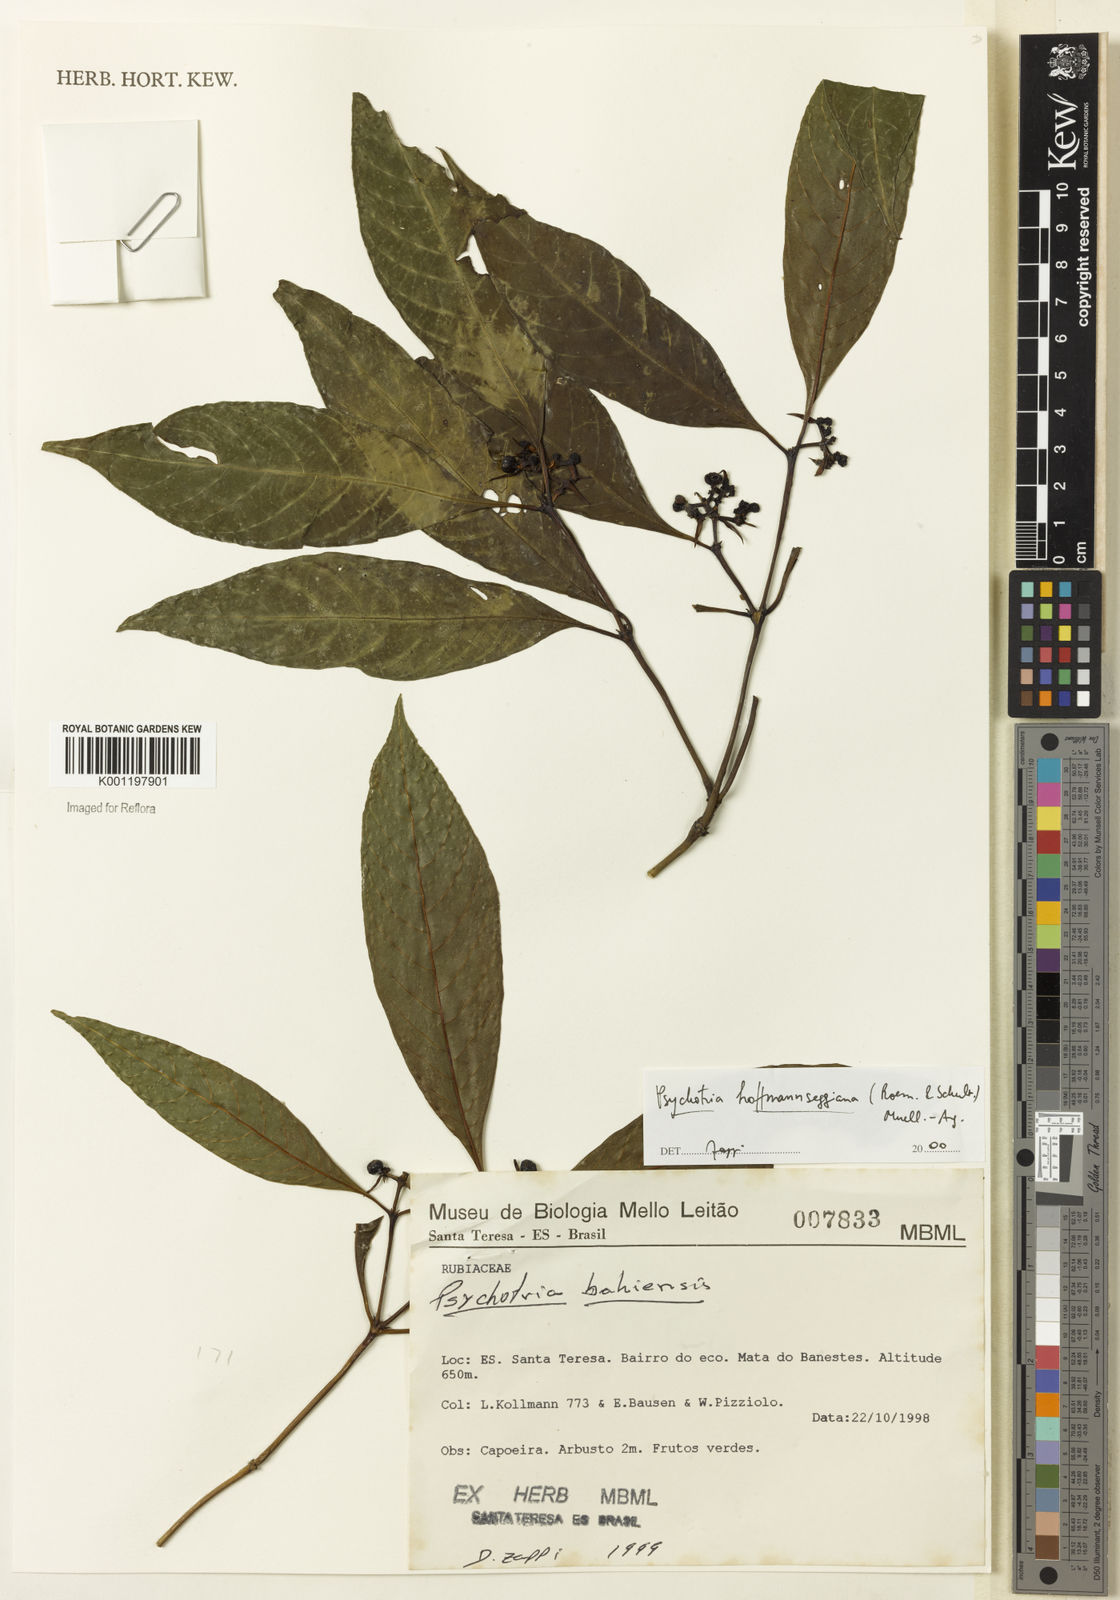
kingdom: Plantae
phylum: Tracheophyta
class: Magnoliopsida
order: Gentianales
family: Rubiaceae
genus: Psychotria
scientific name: Psychotria
